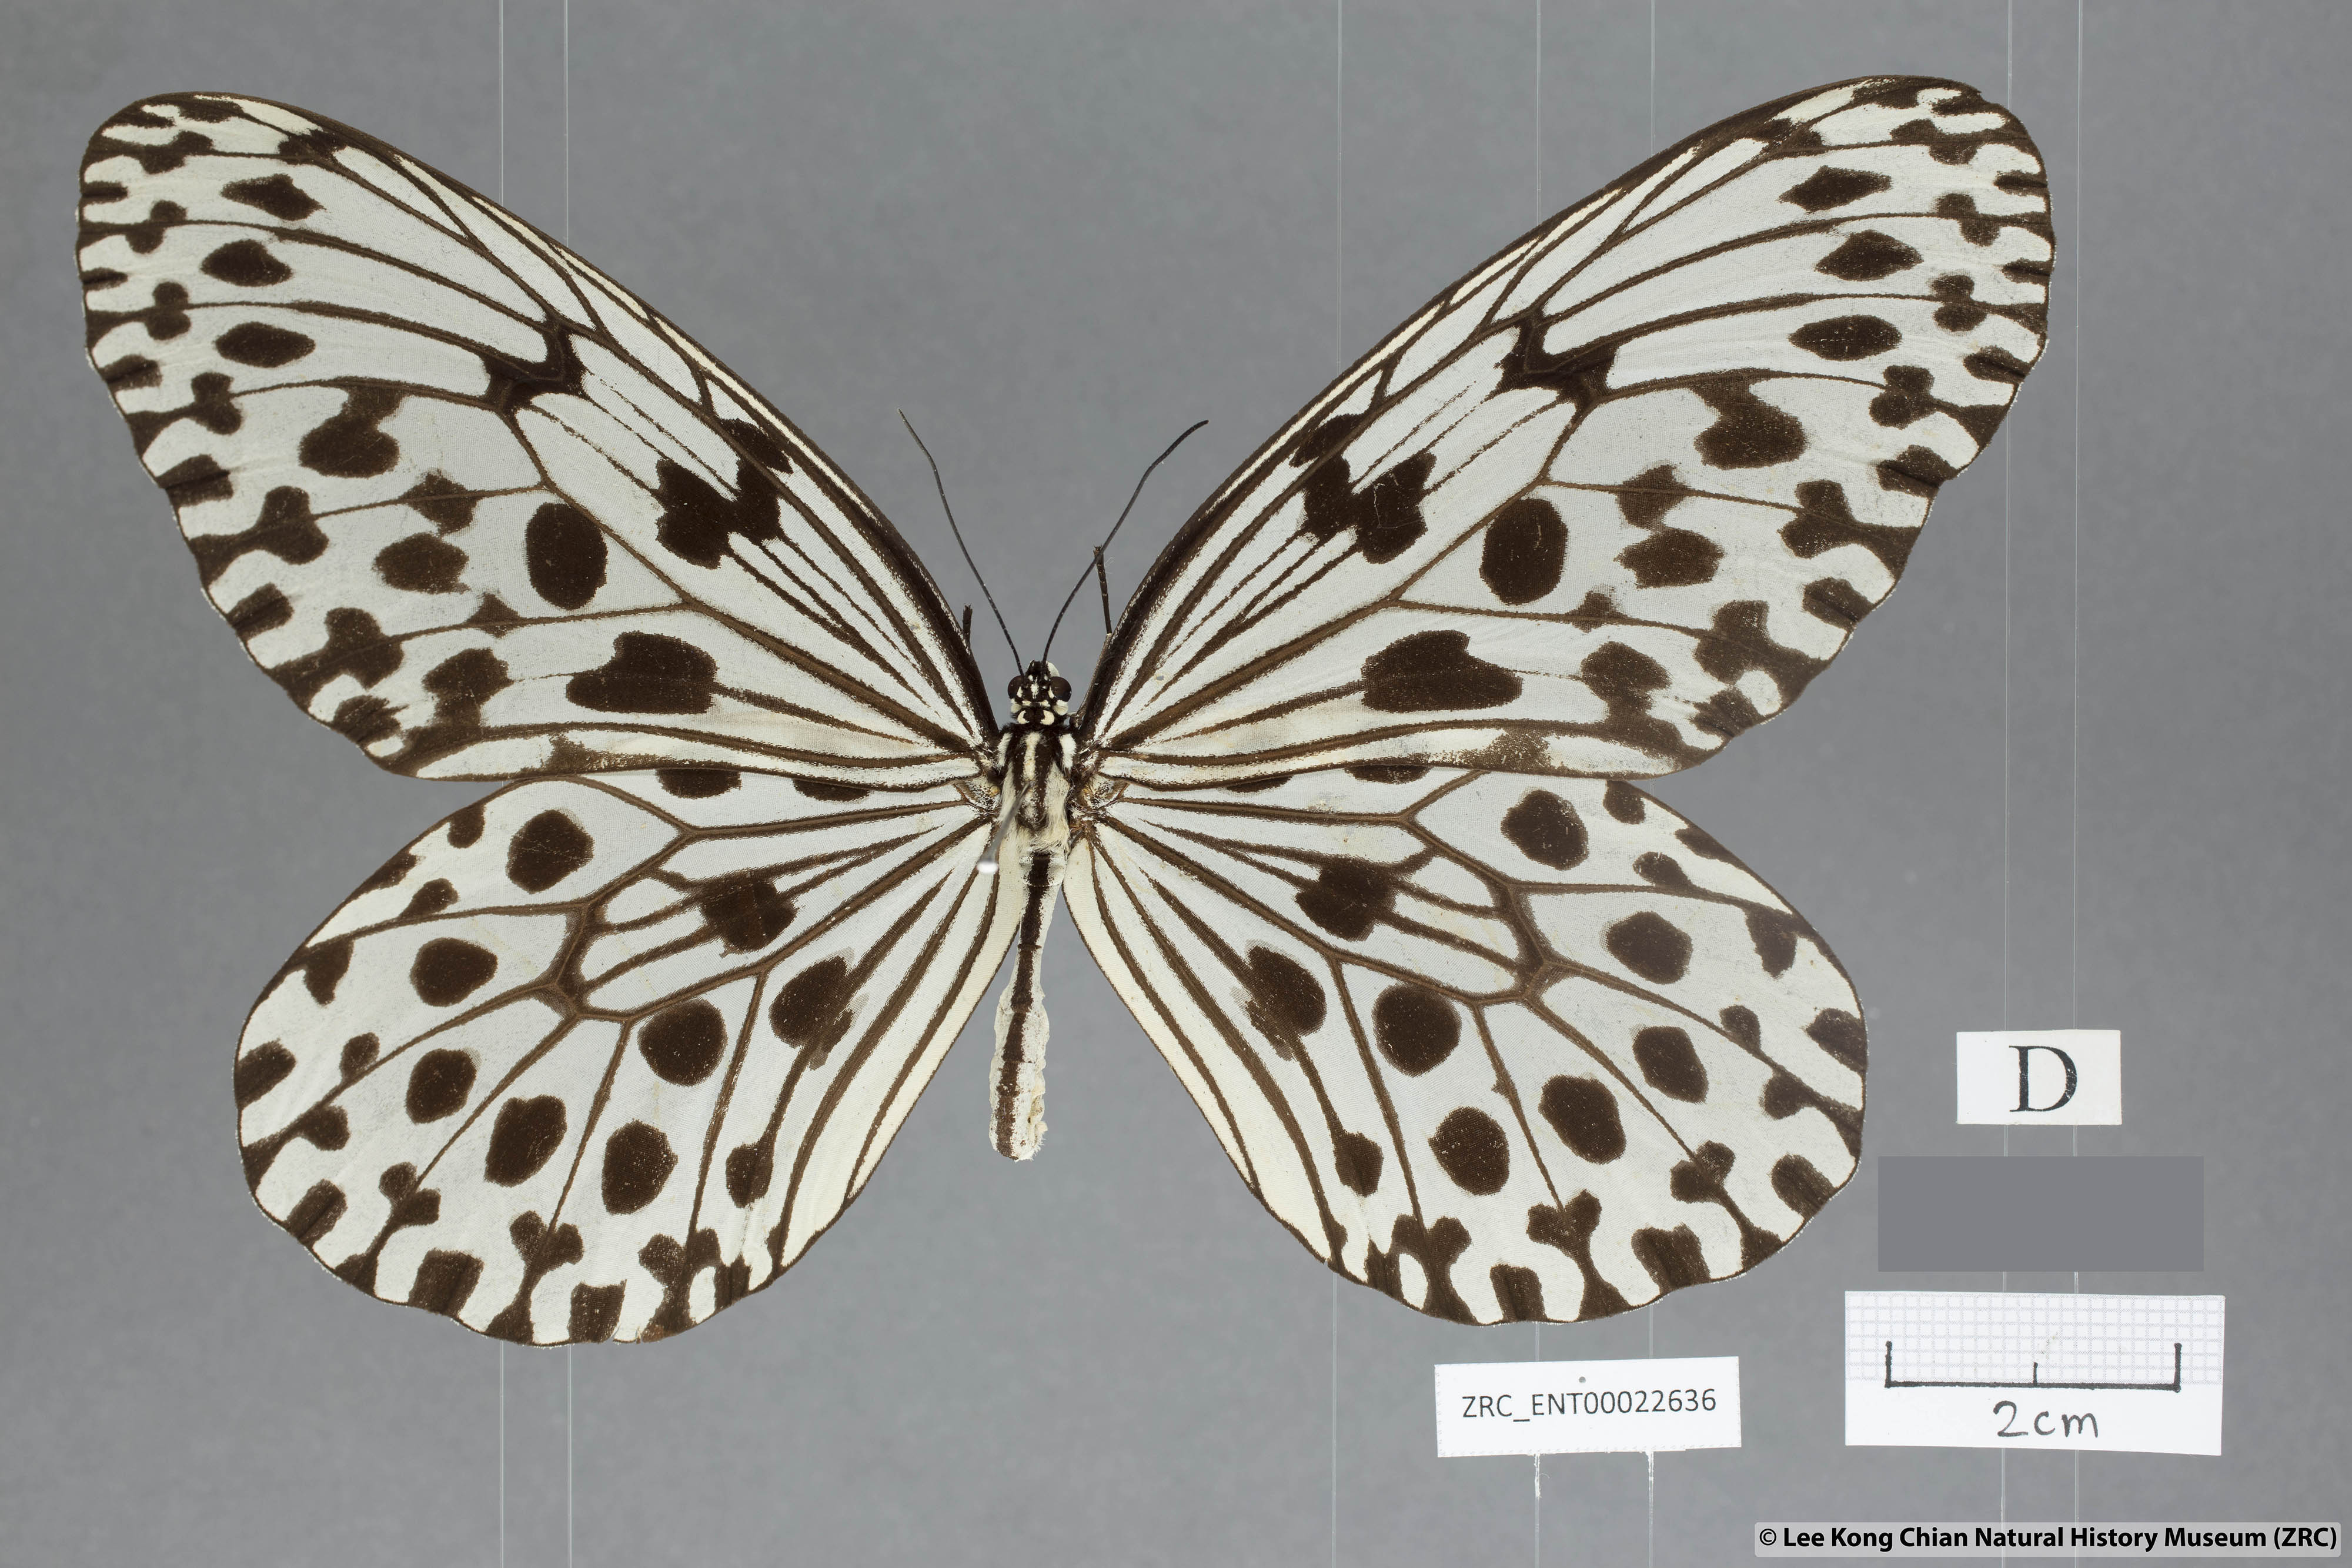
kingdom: Animalia
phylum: Arthropoda
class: Insecta
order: Lepidoptera
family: Nymphalidae
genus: Idea
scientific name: Idea hypermnestra
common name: Malayan tree nymph
